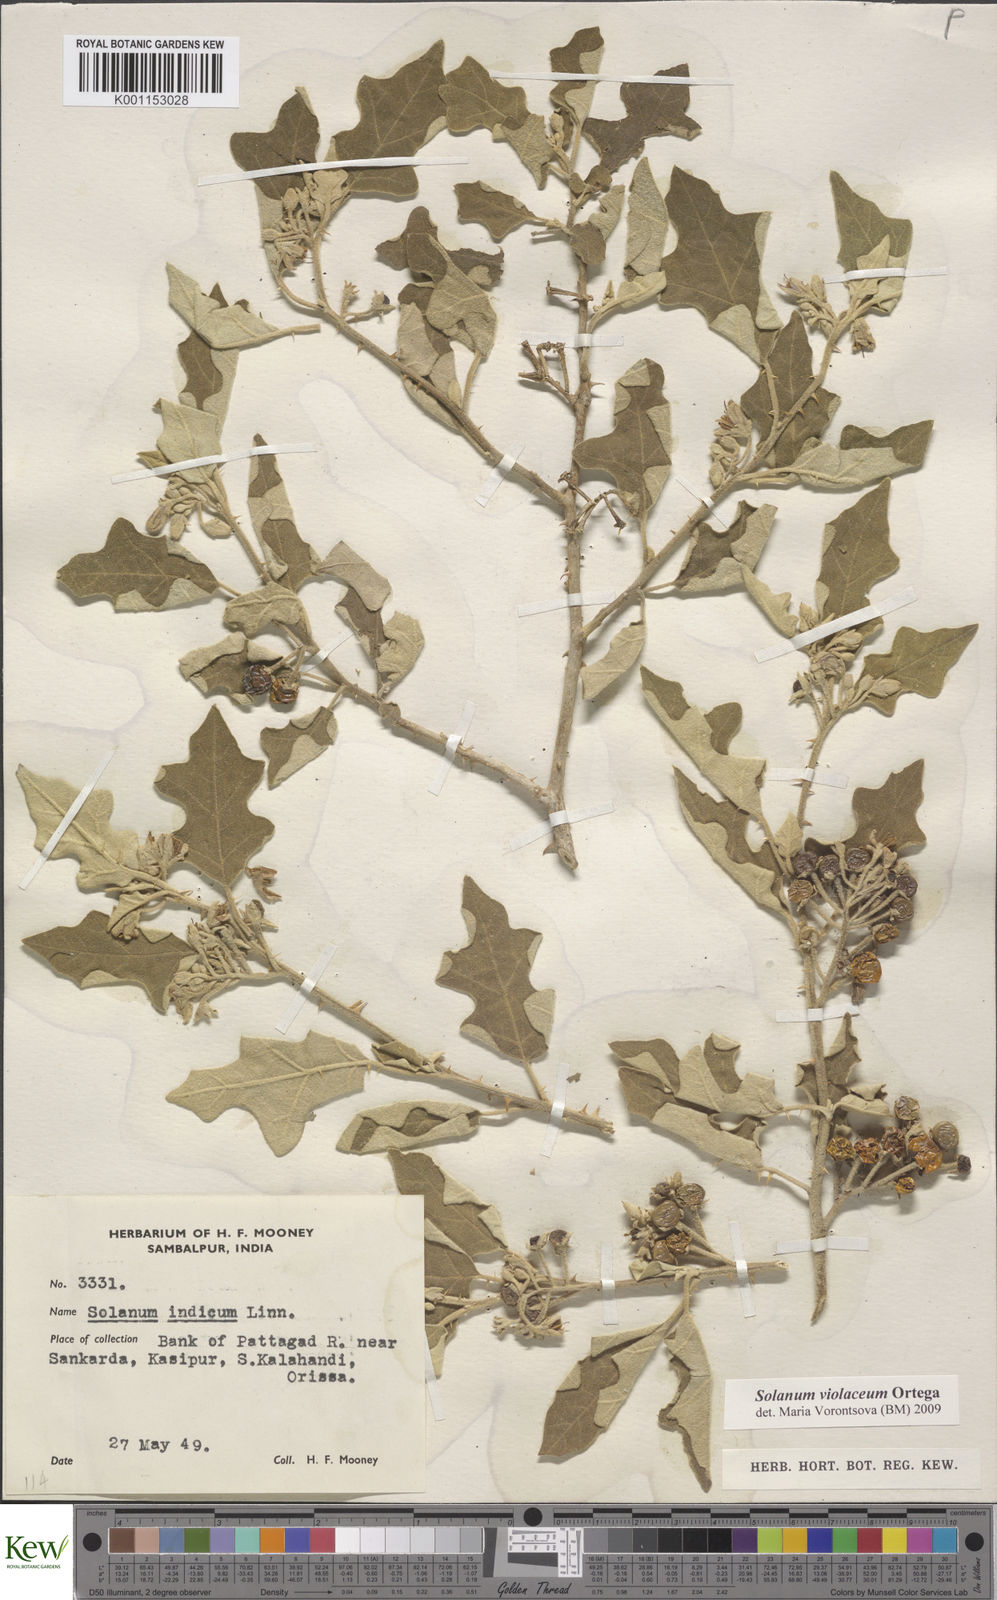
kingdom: Plantae
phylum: Tracheophyta
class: Magnoliopsida
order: Solanales
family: Solanaceae
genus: Solanum
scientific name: Solanum violaceum
